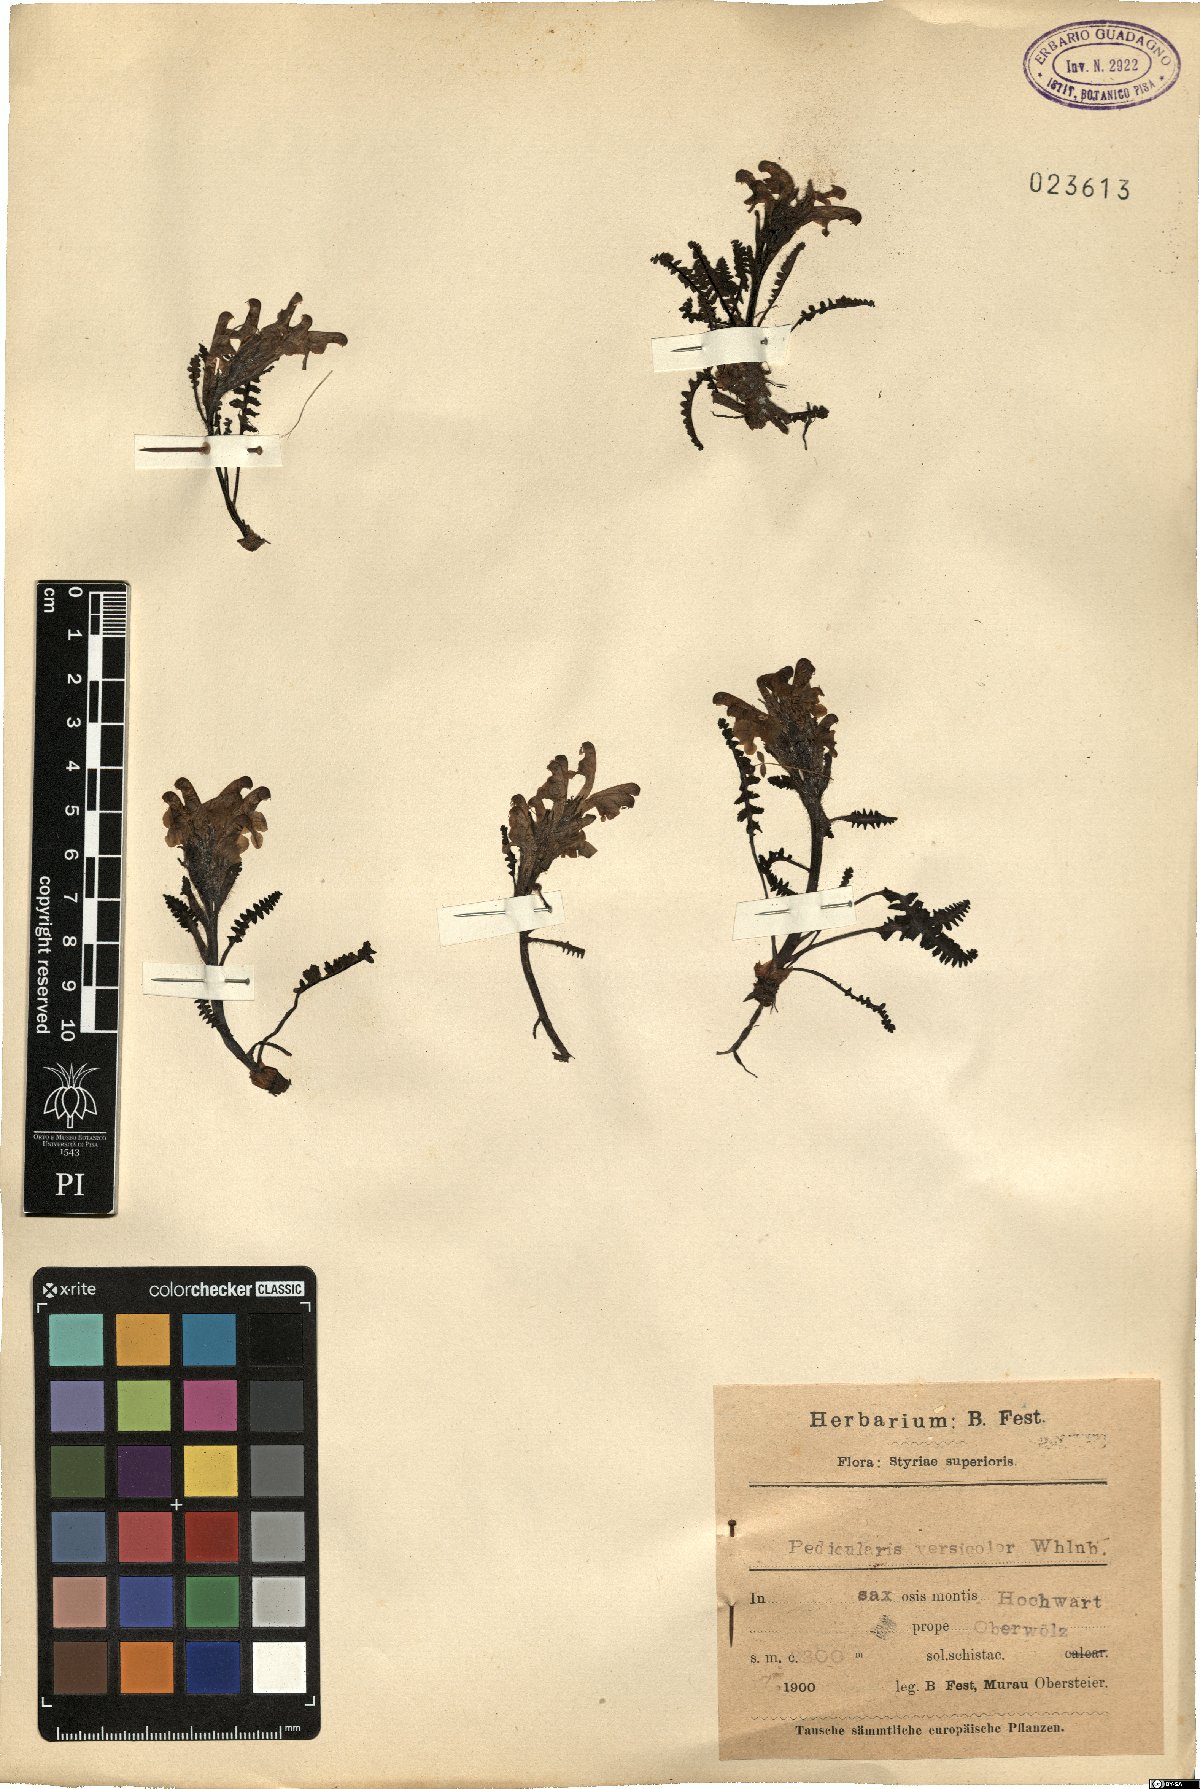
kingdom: Plantae
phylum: Tracheophyta
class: Magnoliopsida
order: Lamiales
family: Orobanchaceae
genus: Pedicularis
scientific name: Pedicularis oederi
